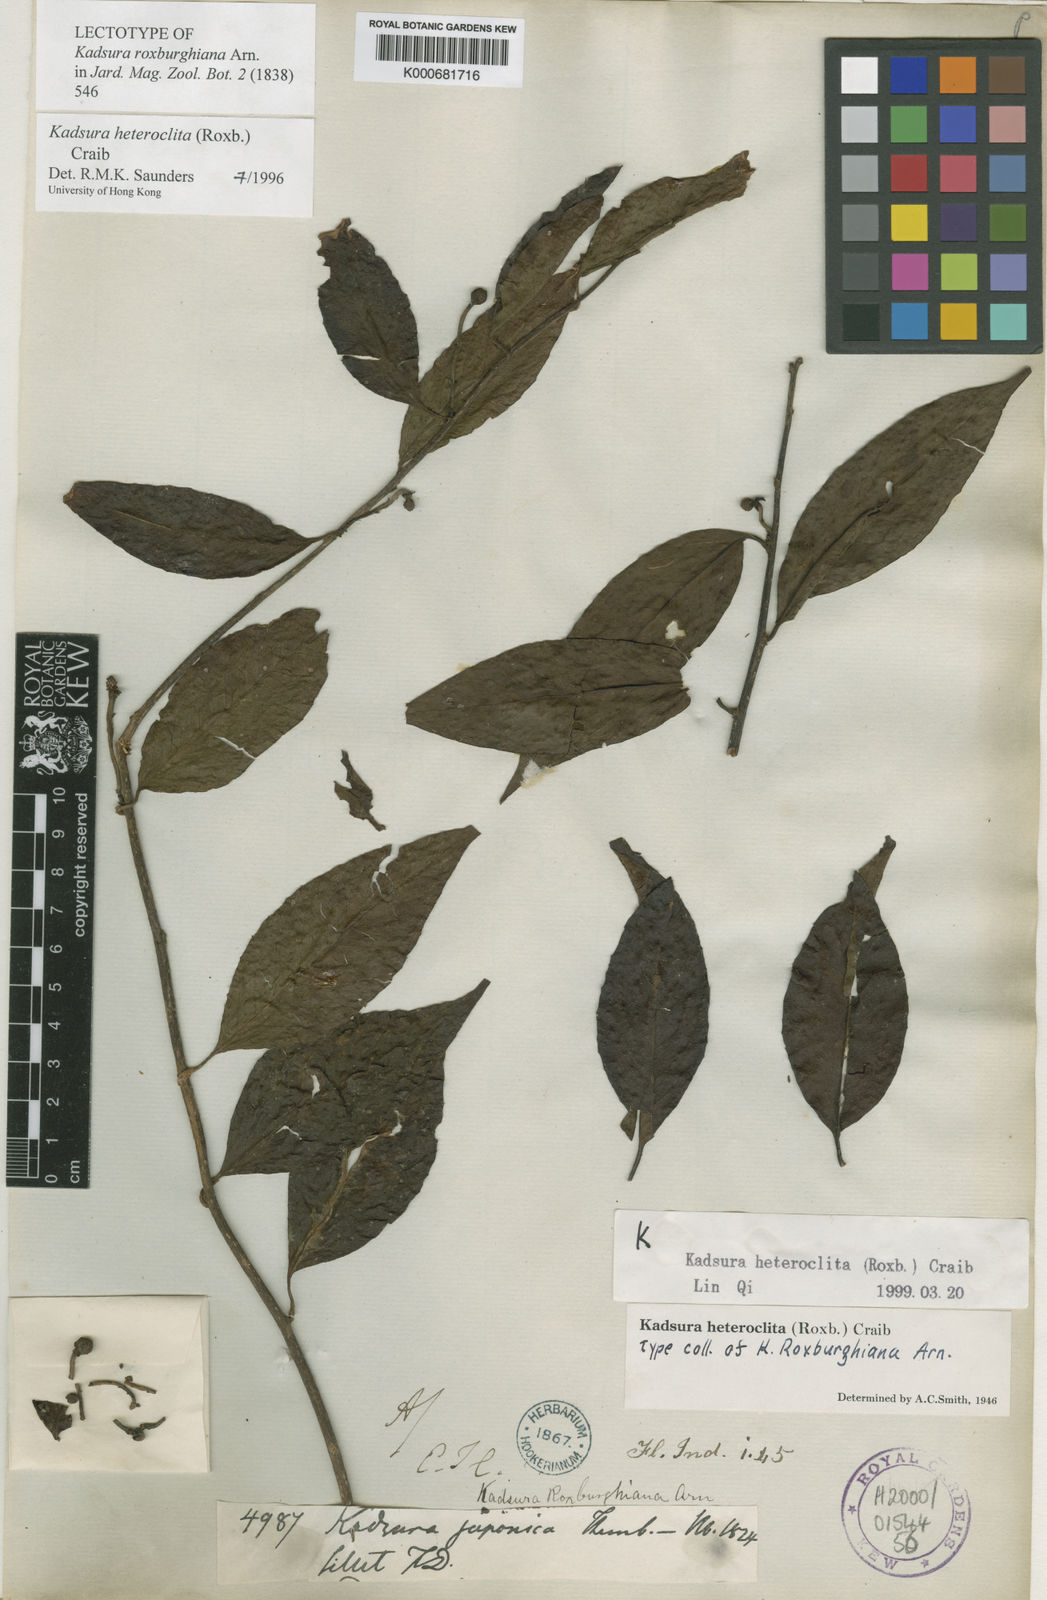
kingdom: Plantae
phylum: Tracheophyta
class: Magnoliopsida
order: Austrobaileyales
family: Schisandraceae
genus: Kadsura
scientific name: Kadsura heteroclita
